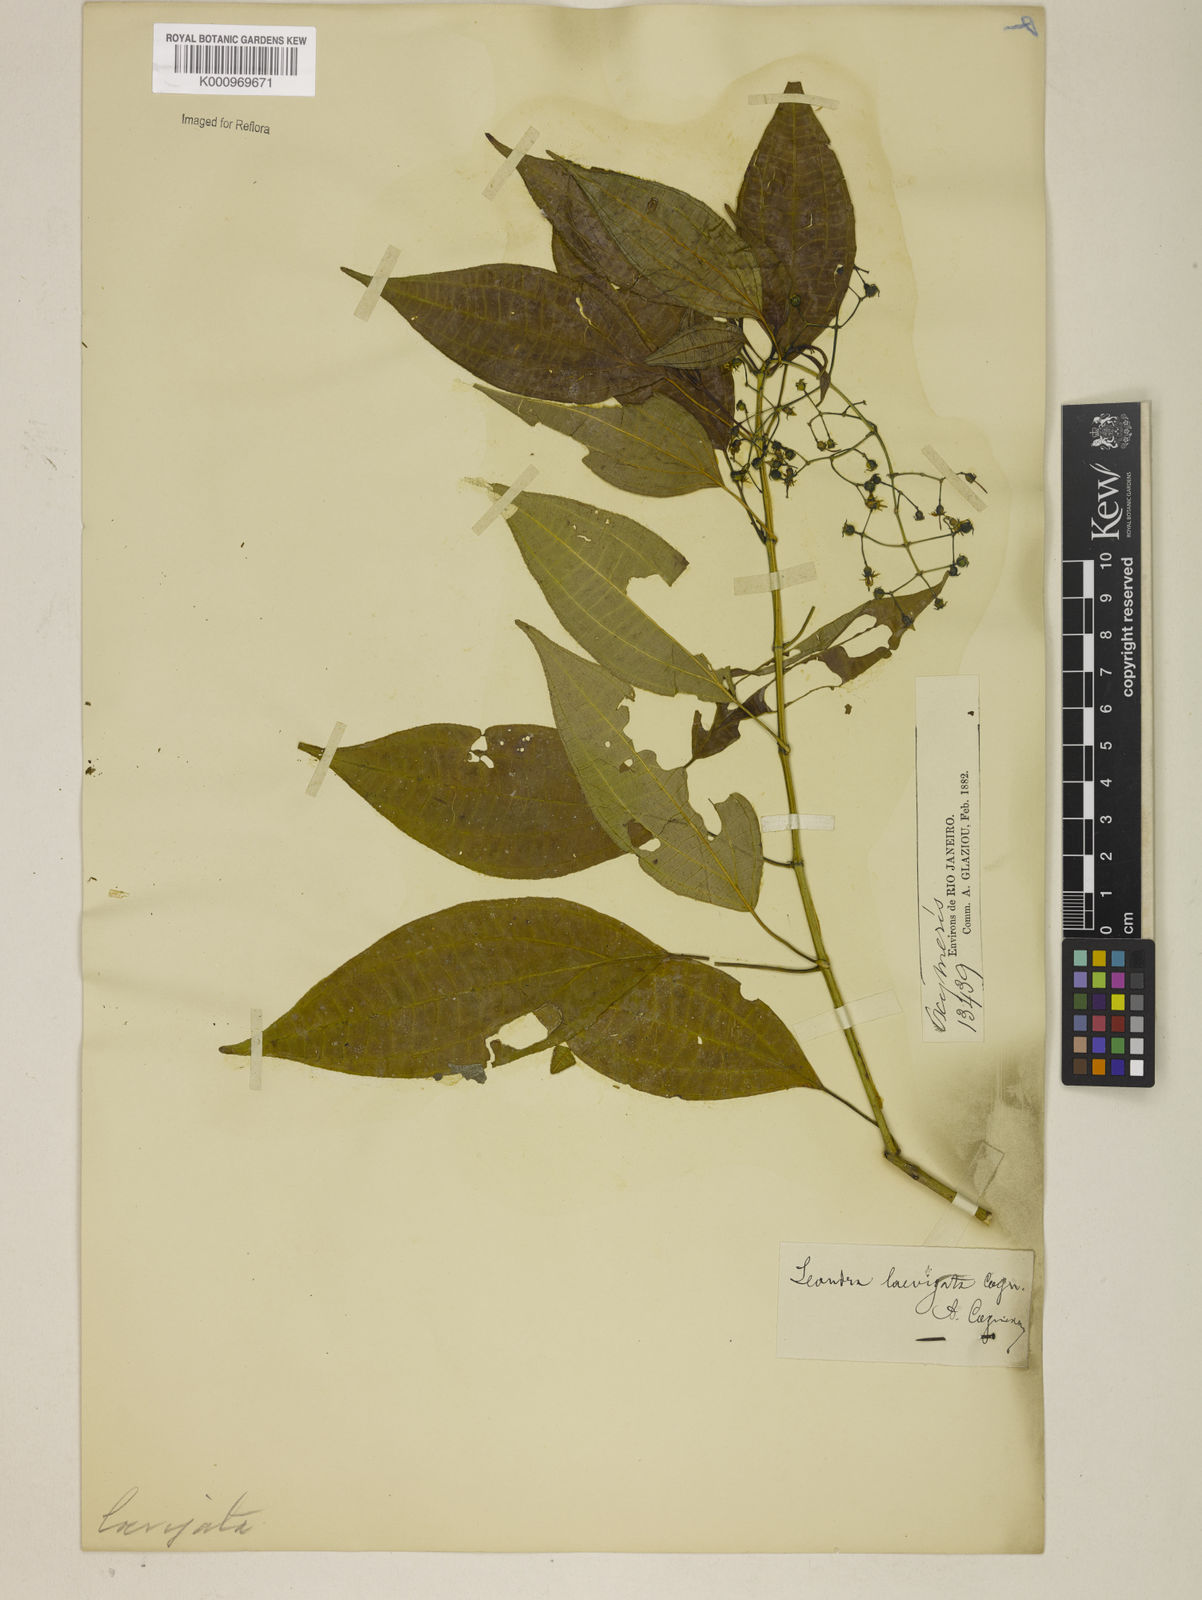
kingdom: Plantae
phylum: Tracheophyta
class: Magnoliopsida
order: Myrtales
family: Melastomataceae
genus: Miconia
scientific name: Miconia ciliolata
